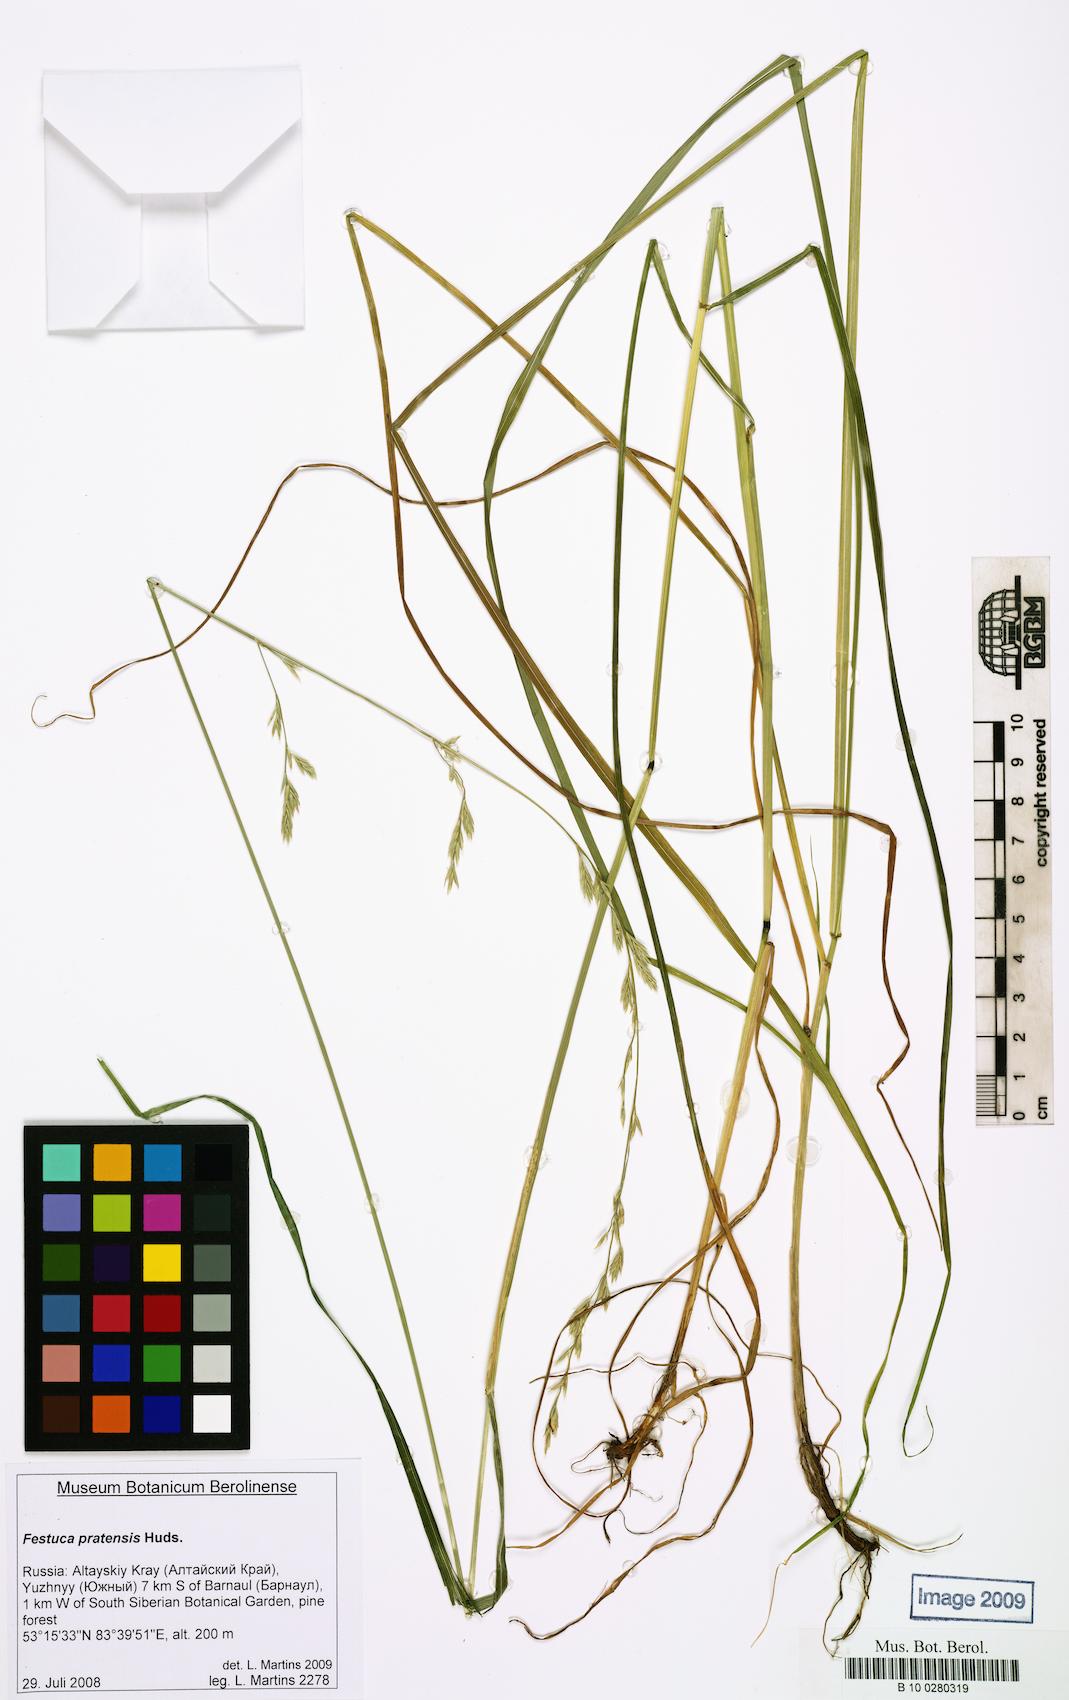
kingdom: Plantae
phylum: Tracheophyta
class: Liliopsida
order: Poales
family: Poaceae
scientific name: Poaceae
